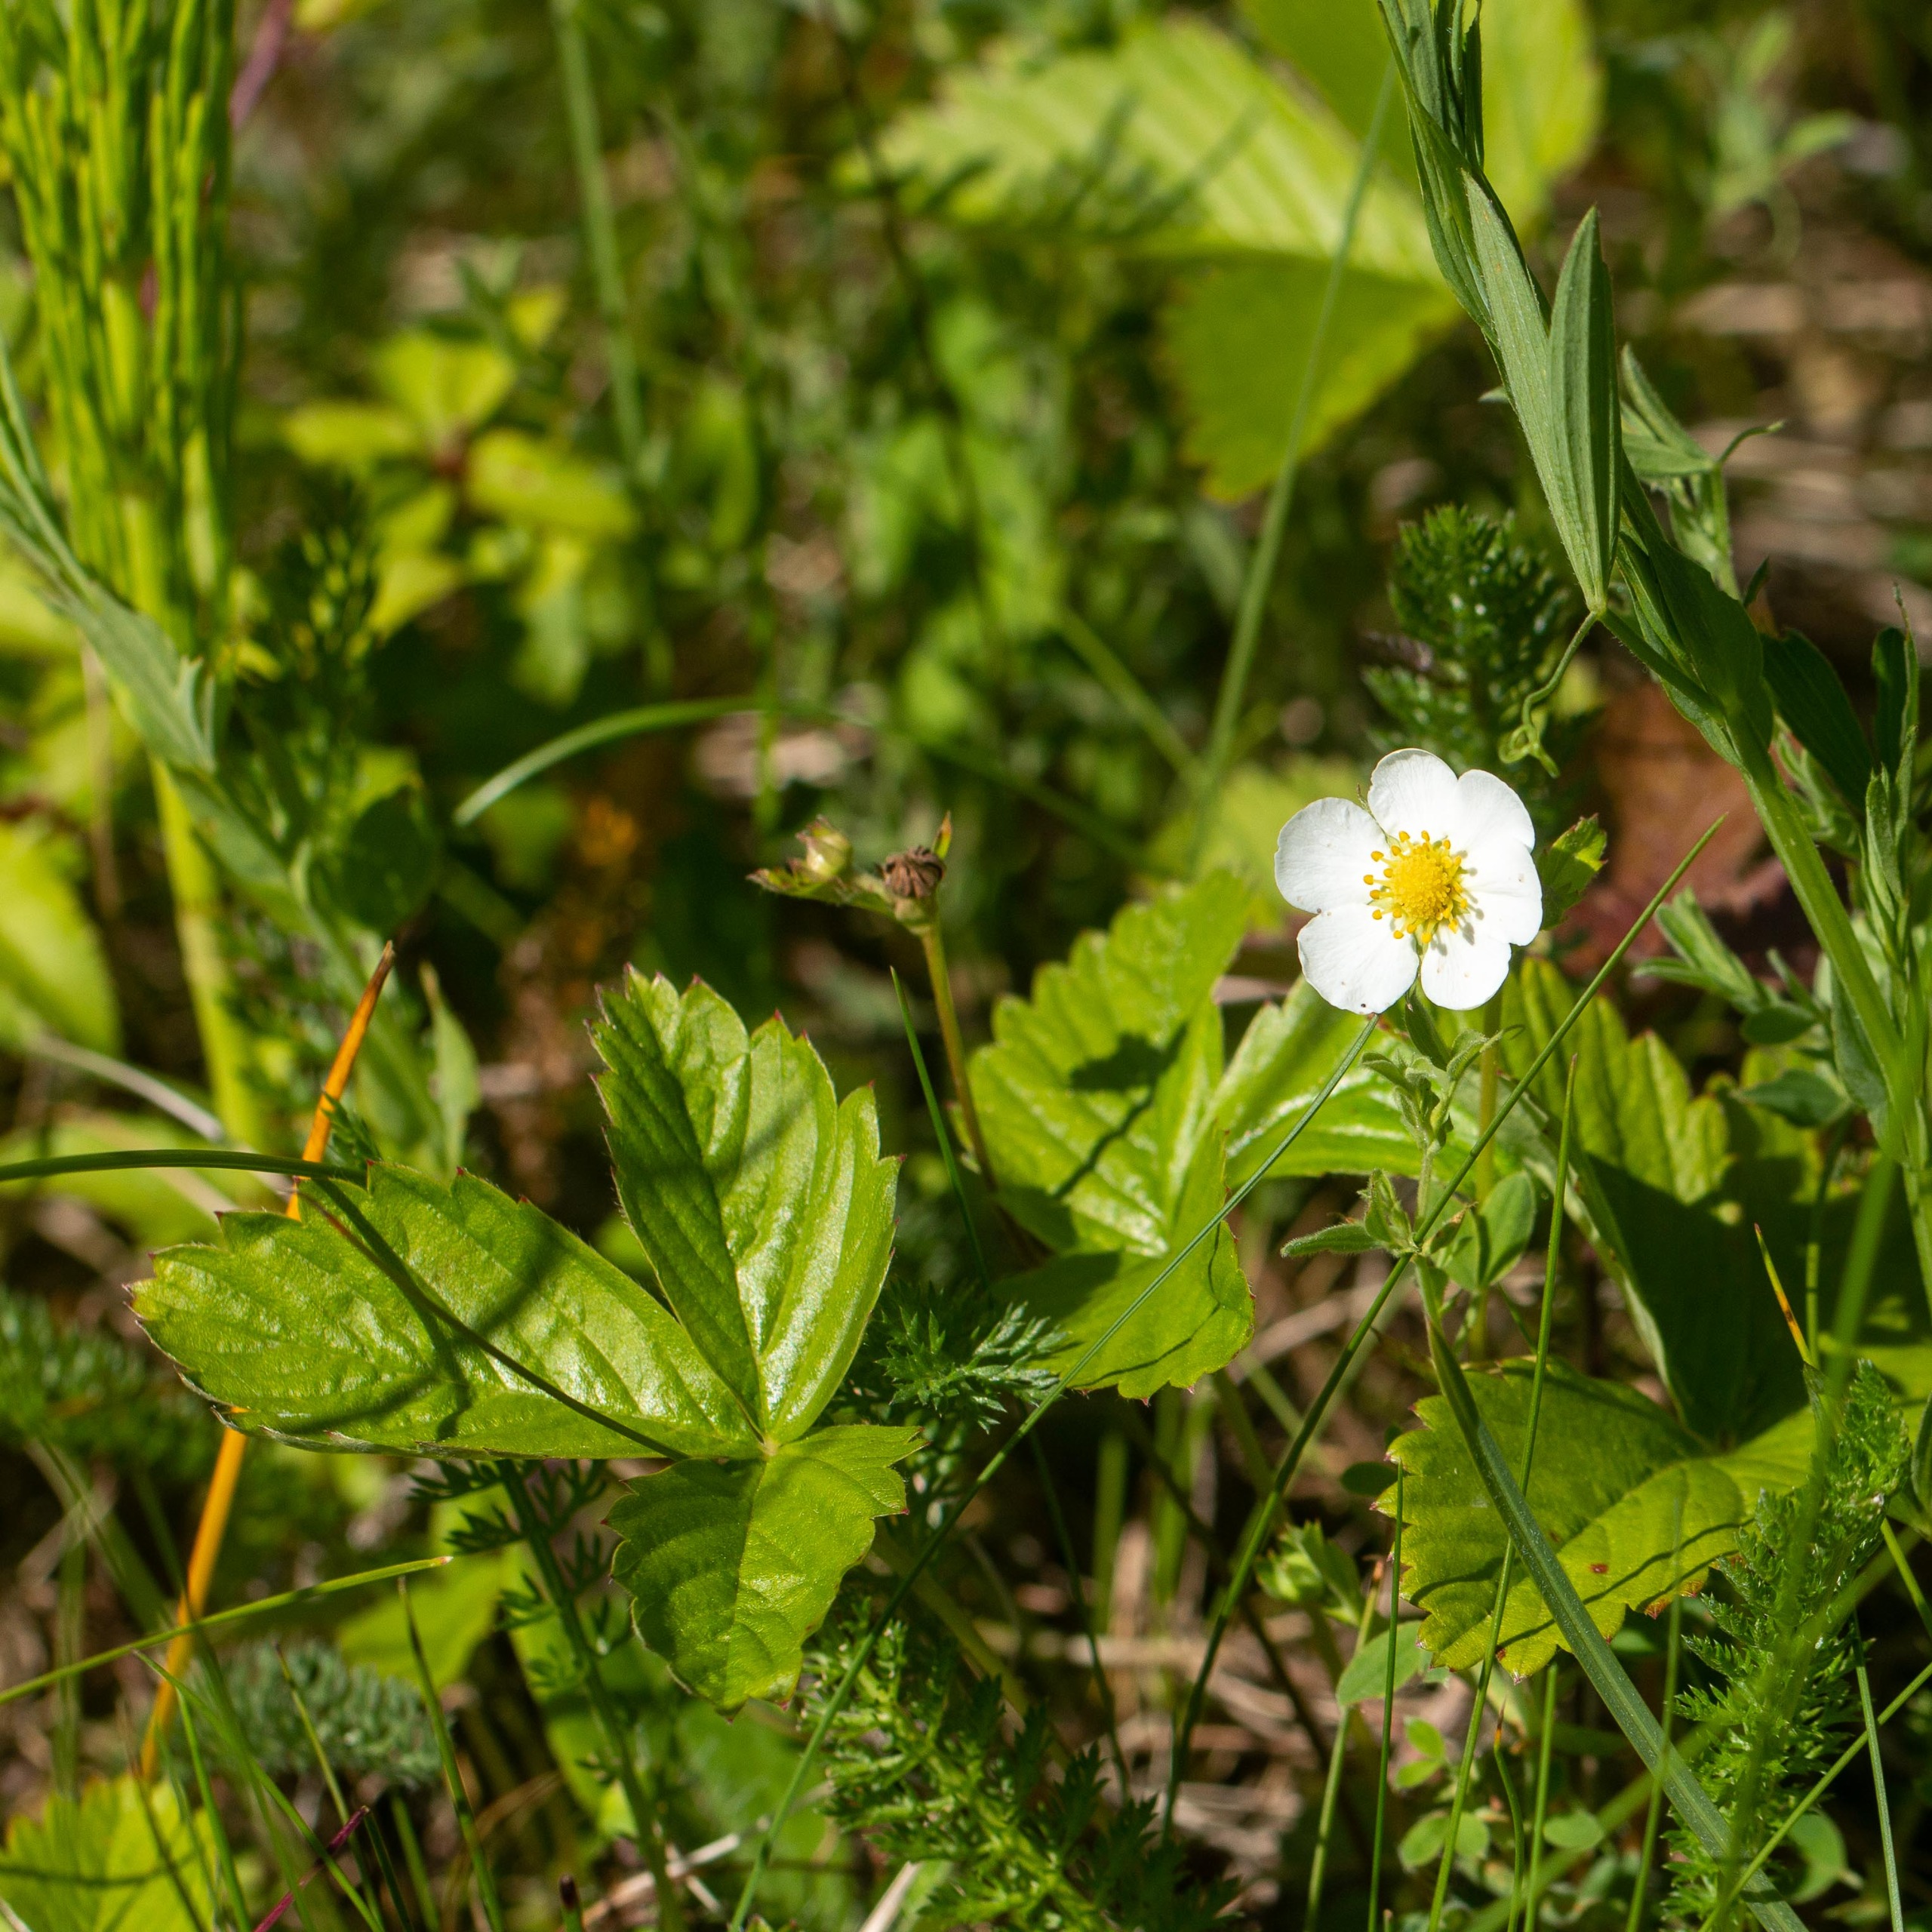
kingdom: Plantae
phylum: Tracheophyta
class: Magnoliopsida
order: Rosales
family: Rosaceae
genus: Fragaria
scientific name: Fragaria vesca
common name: Skov-jordbær
